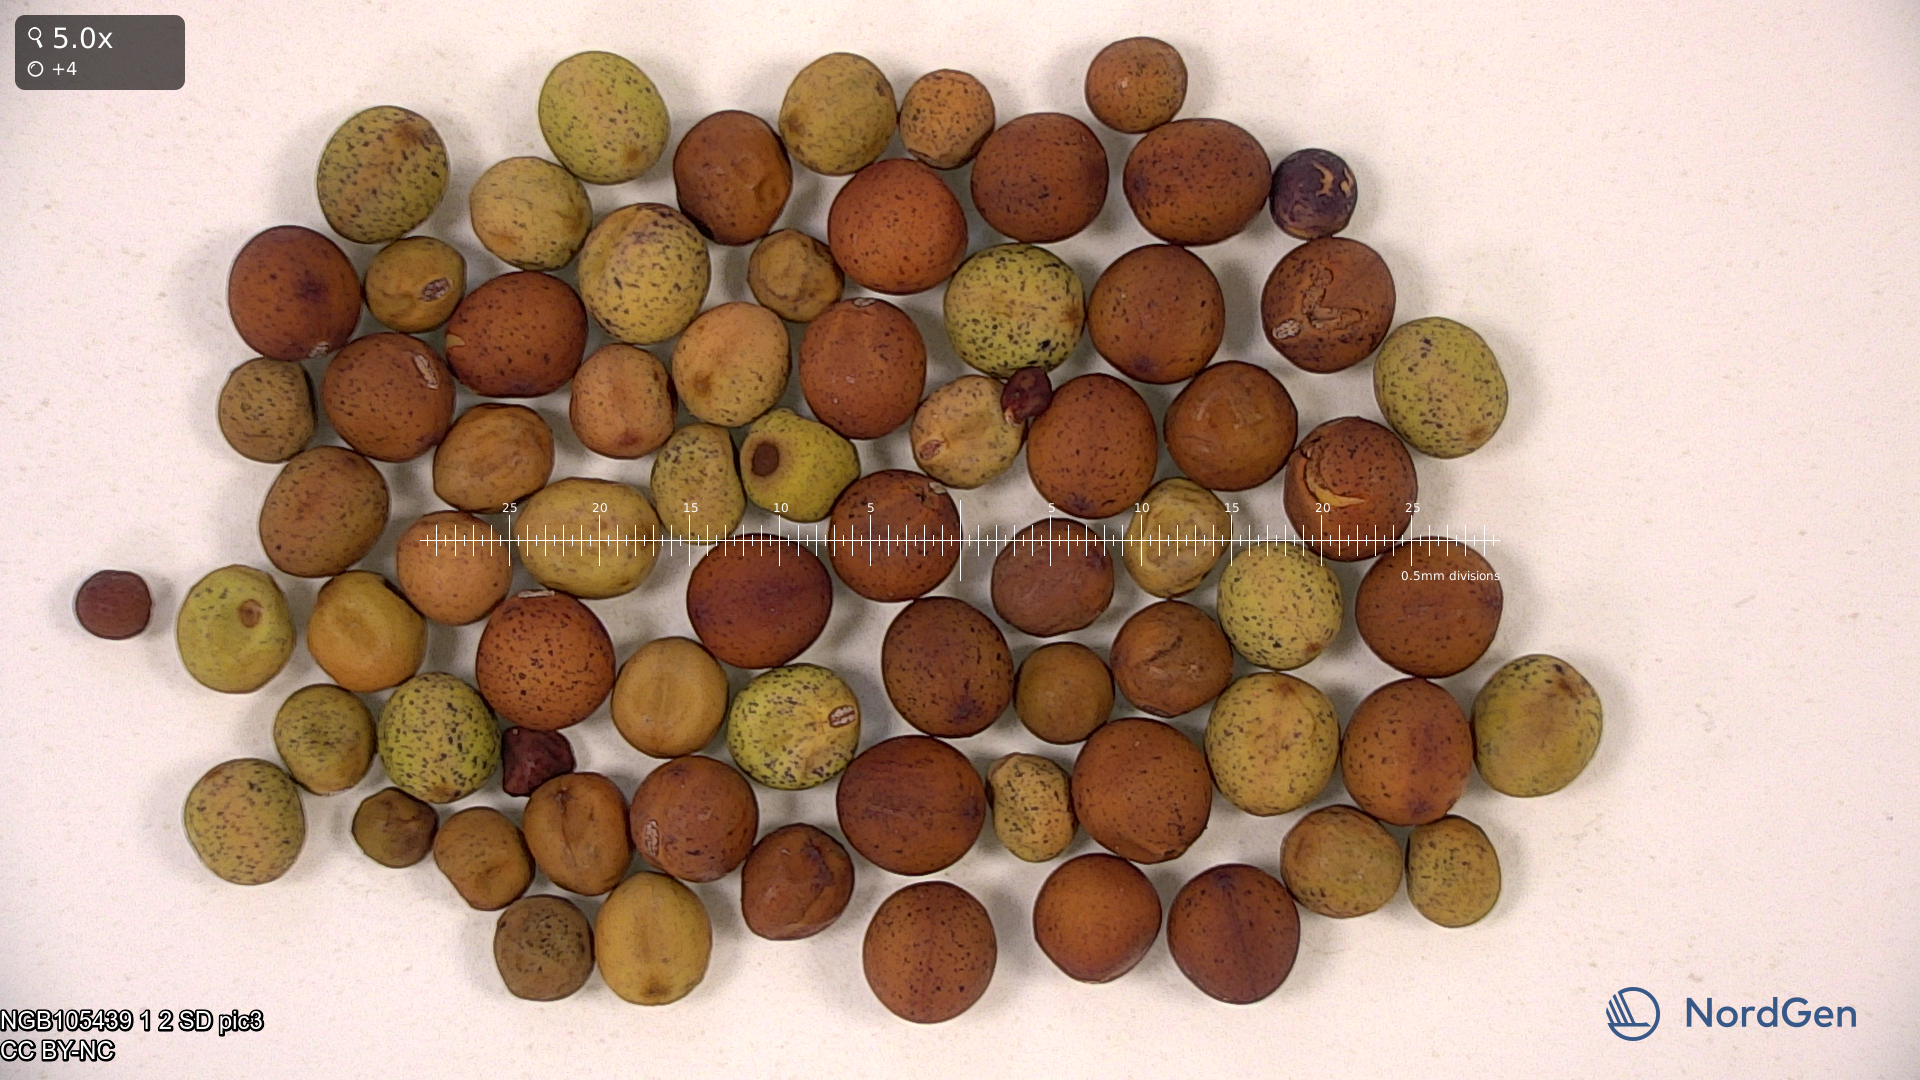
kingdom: Plantae
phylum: Tracheophyta
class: Magnoliopsida
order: Fabales
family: Fabaceae
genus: Lathyrus
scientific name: Lathyrus oleraceus
